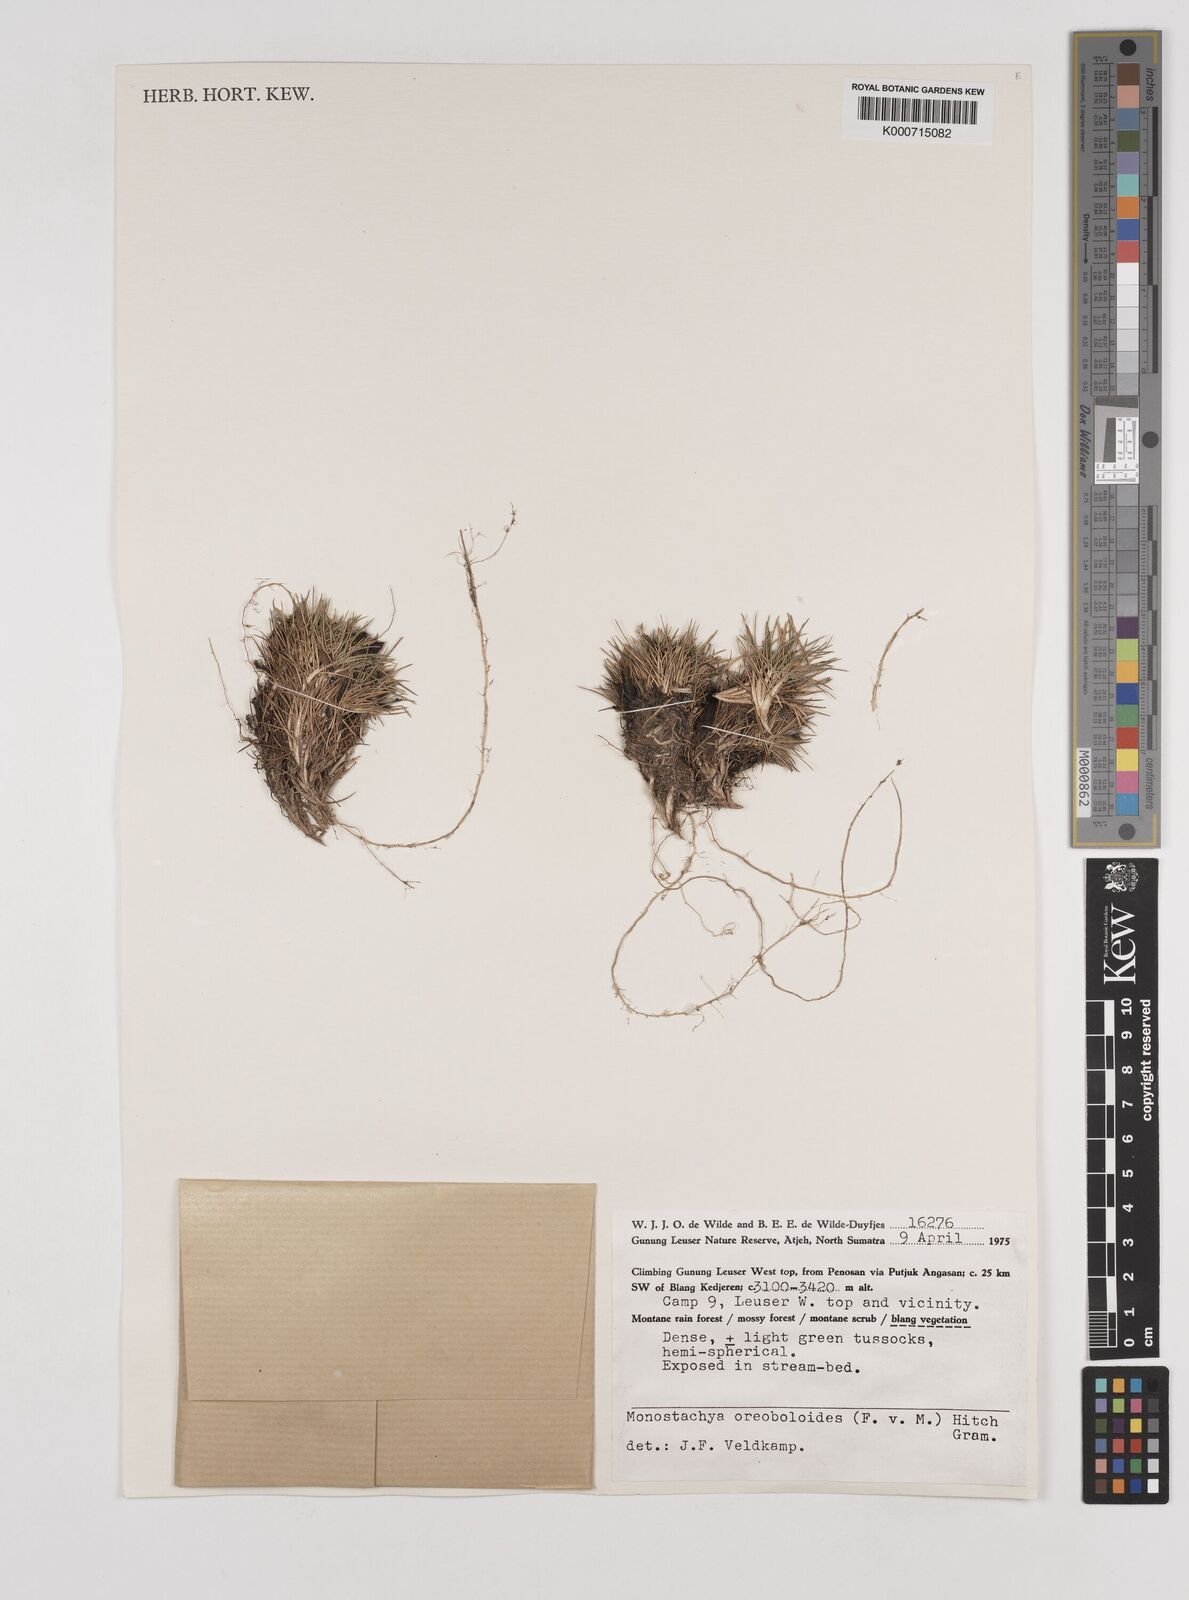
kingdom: Plantae
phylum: Tracheophyta
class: Liliopsida
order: Poales
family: Poaceae
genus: Rytidosperma
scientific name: Rytidosperma oreoboloides
